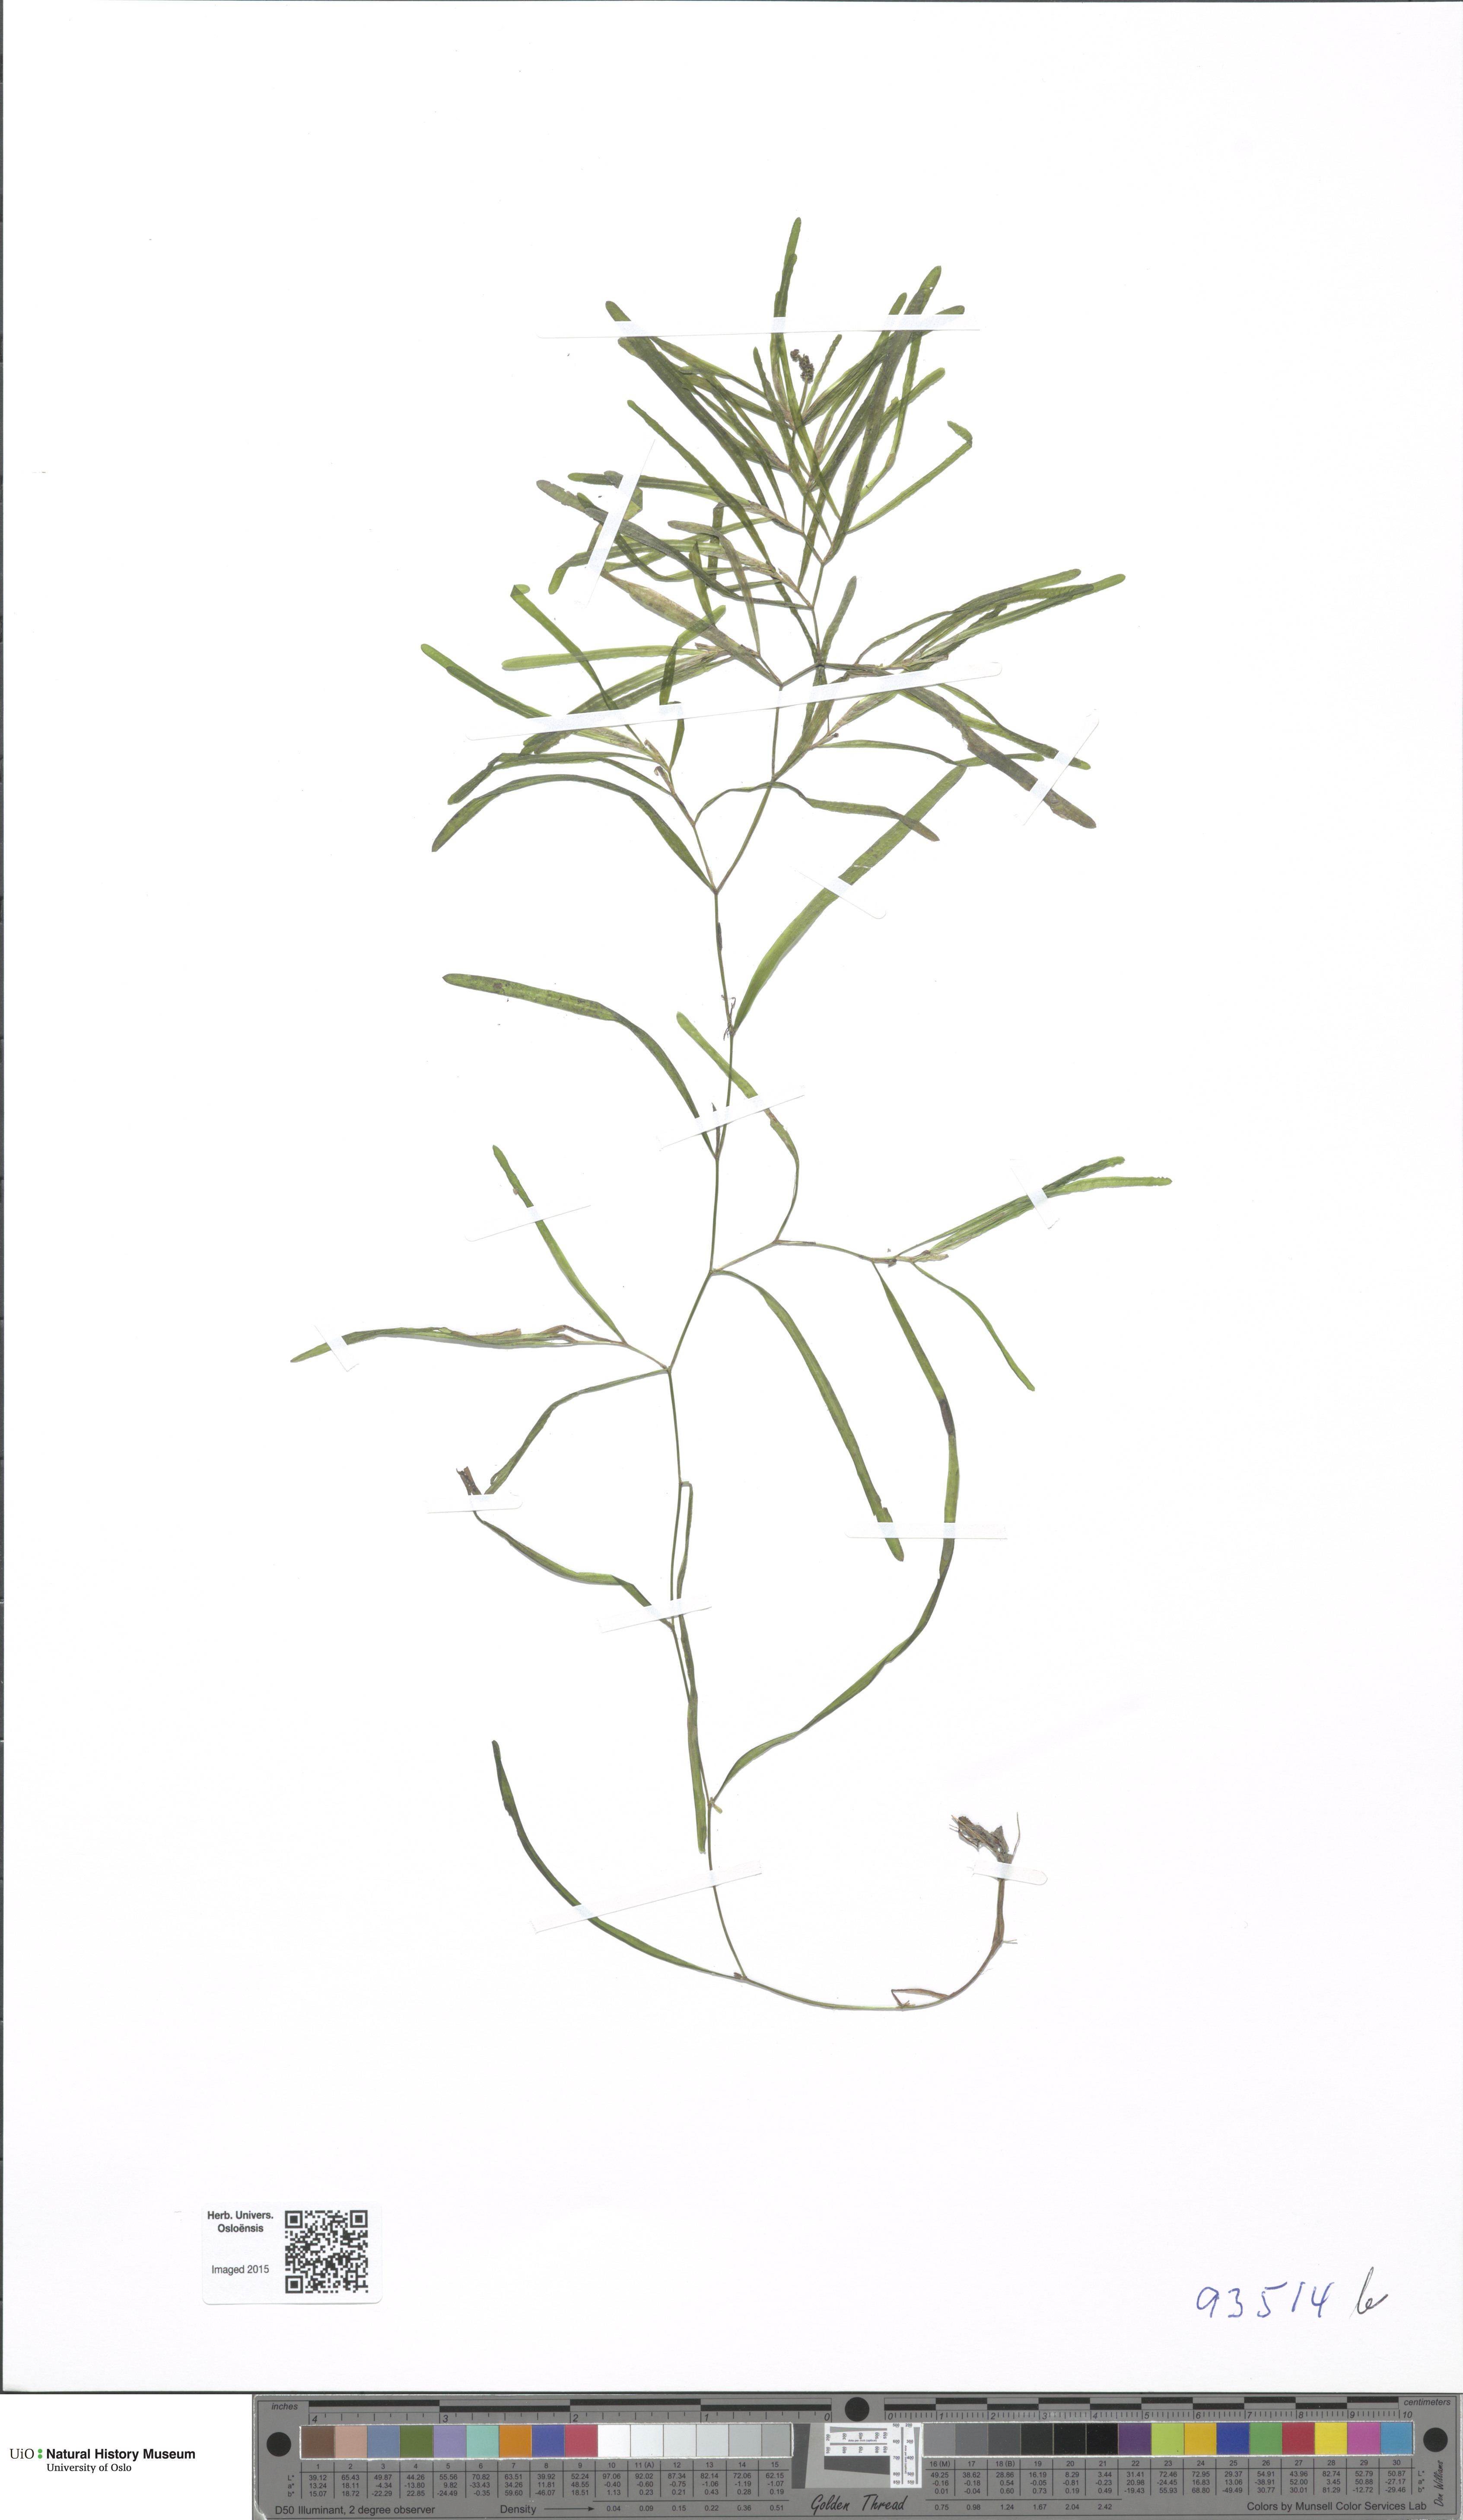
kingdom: Plantae
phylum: Tracheophyta
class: Liliopsida
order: Alismatales
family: Potamogetonaceae
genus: Potamogeton
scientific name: Potamogeton obtusifolius
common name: Blunt-leaved pondweed
